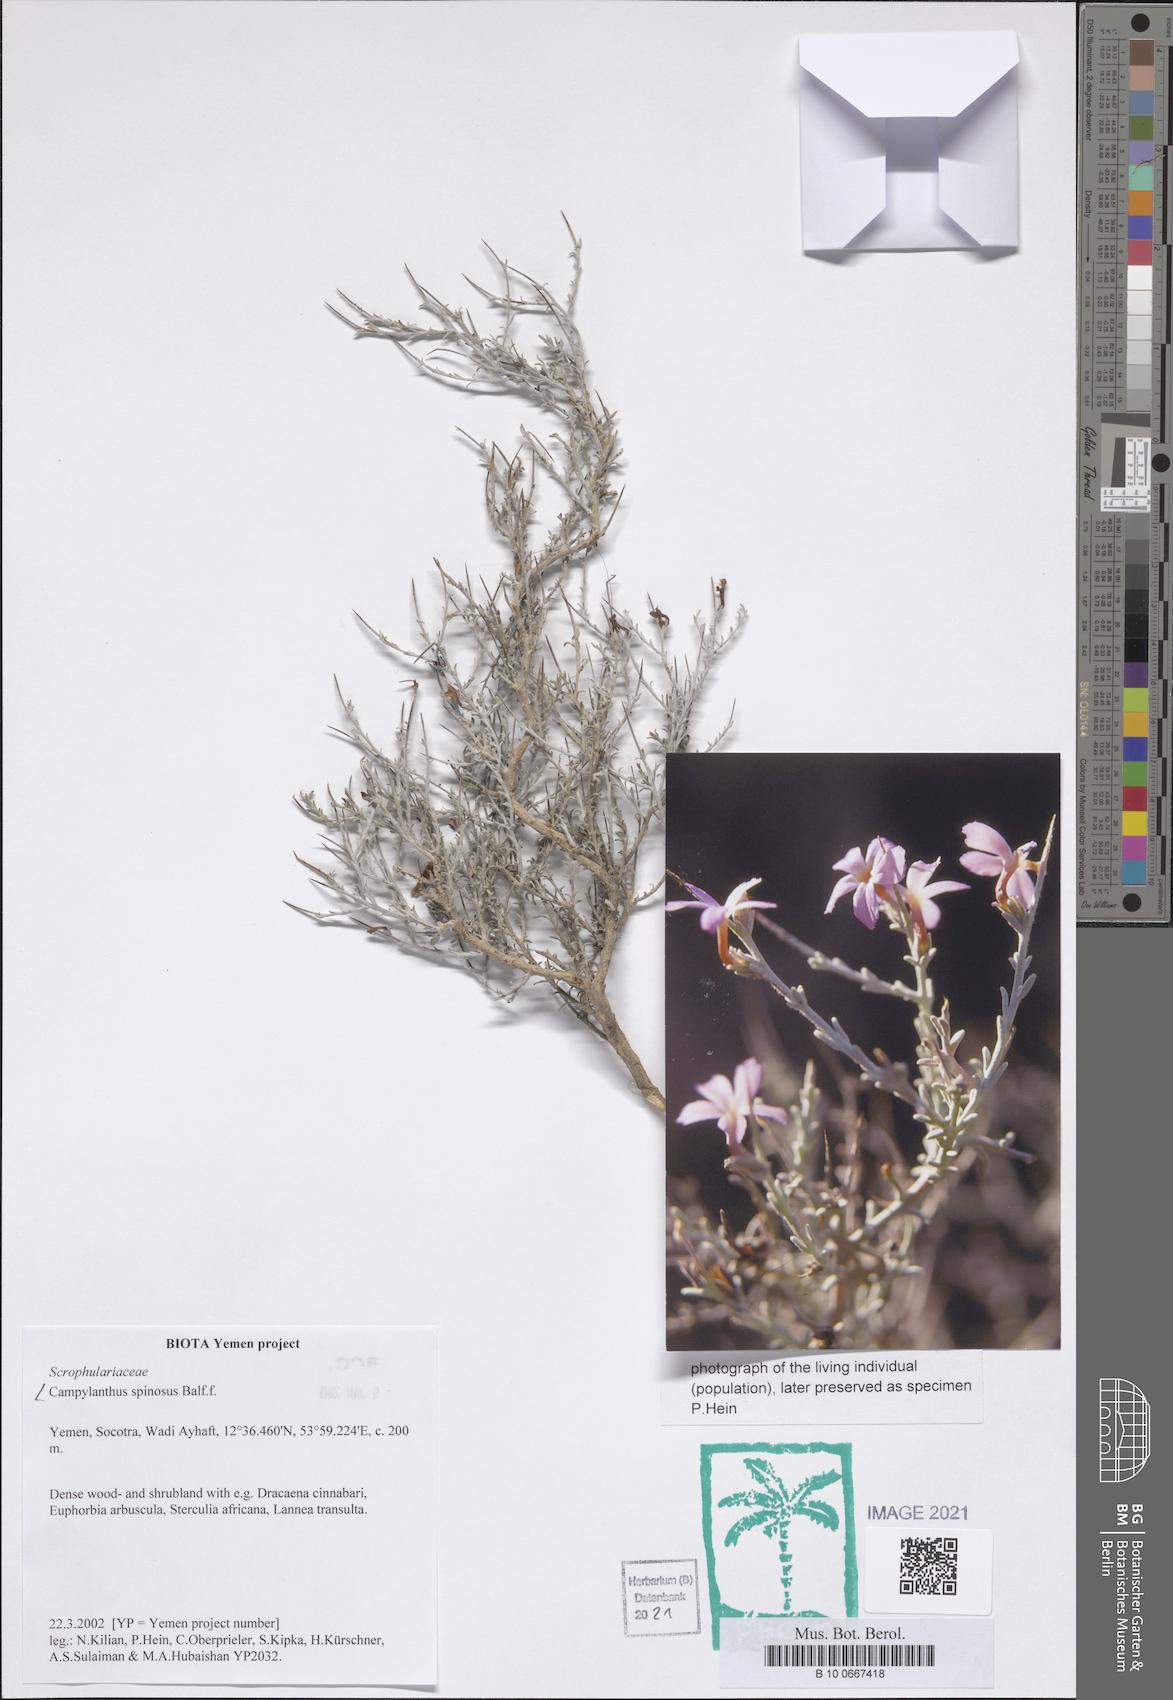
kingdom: Plantae
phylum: Tracheophyta
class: Magnoliopsida
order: Lamiales
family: Plantaginaceae
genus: Campylanthus
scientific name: Campylanthus spinosus
